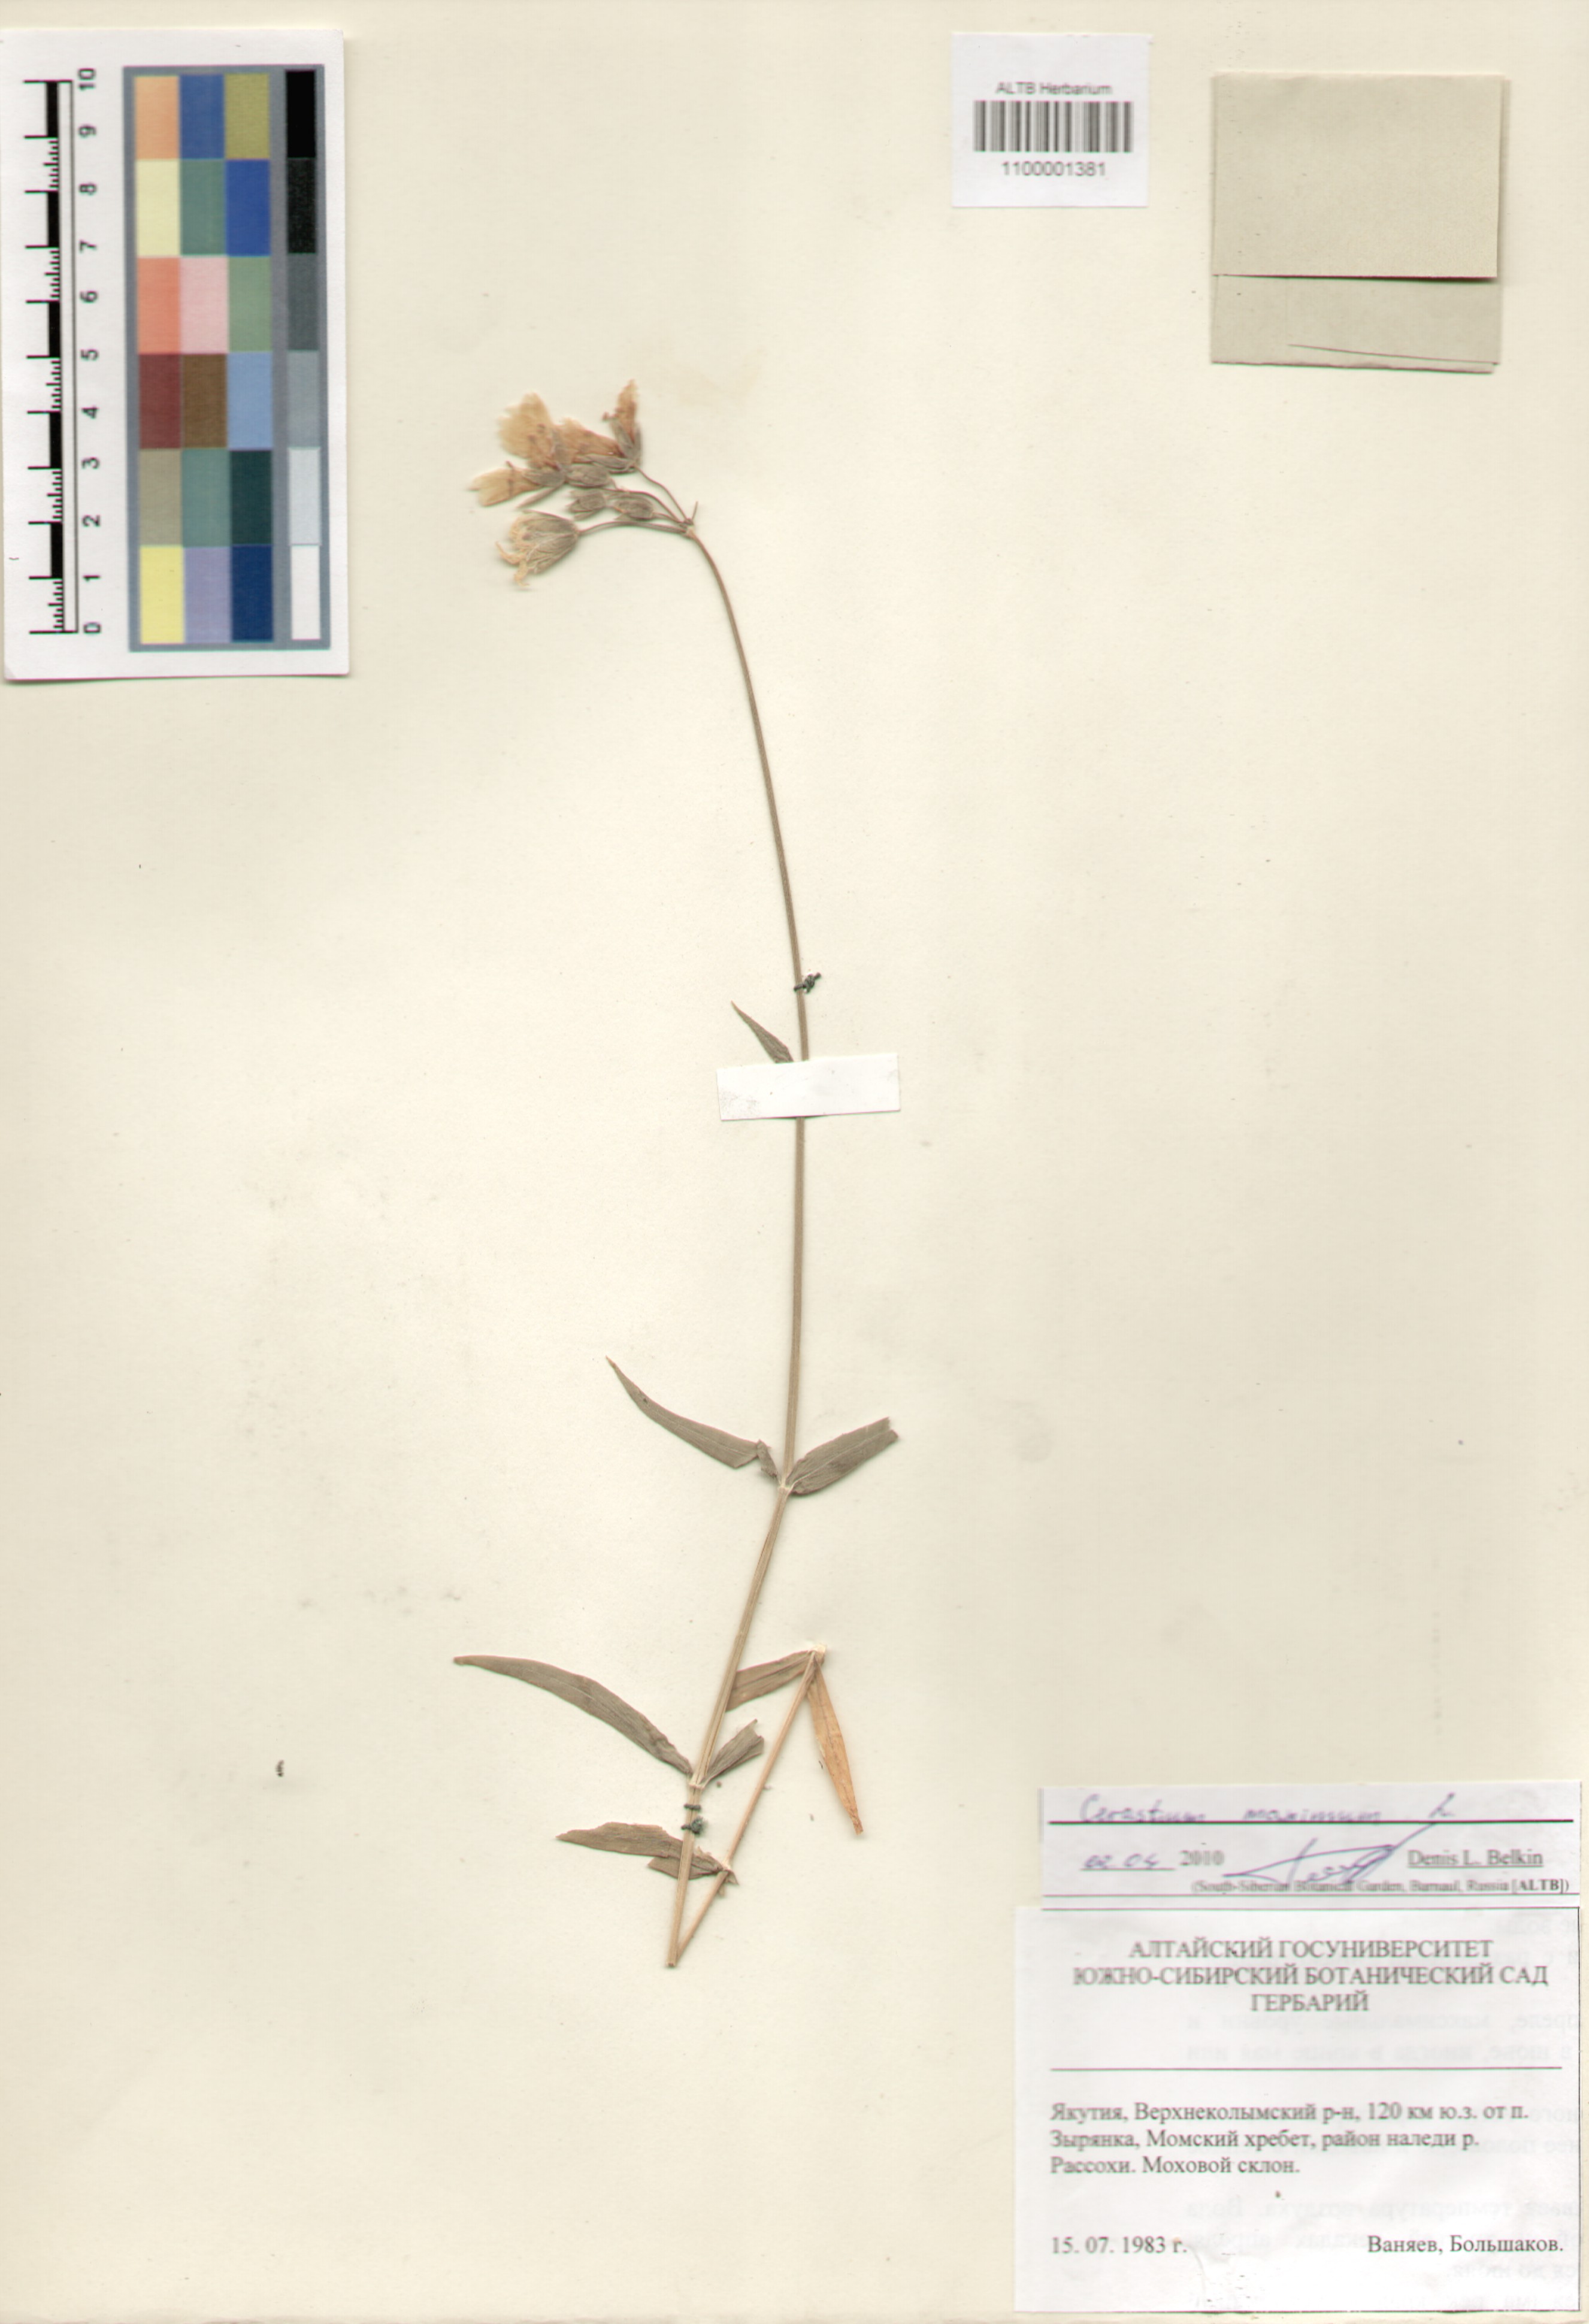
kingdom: Plantae
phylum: Tracheophyta
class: Magnoliopsida
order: Caryophyllales
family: Caryophyllaceae
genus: Dichodon
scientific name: Dichodon maximum
